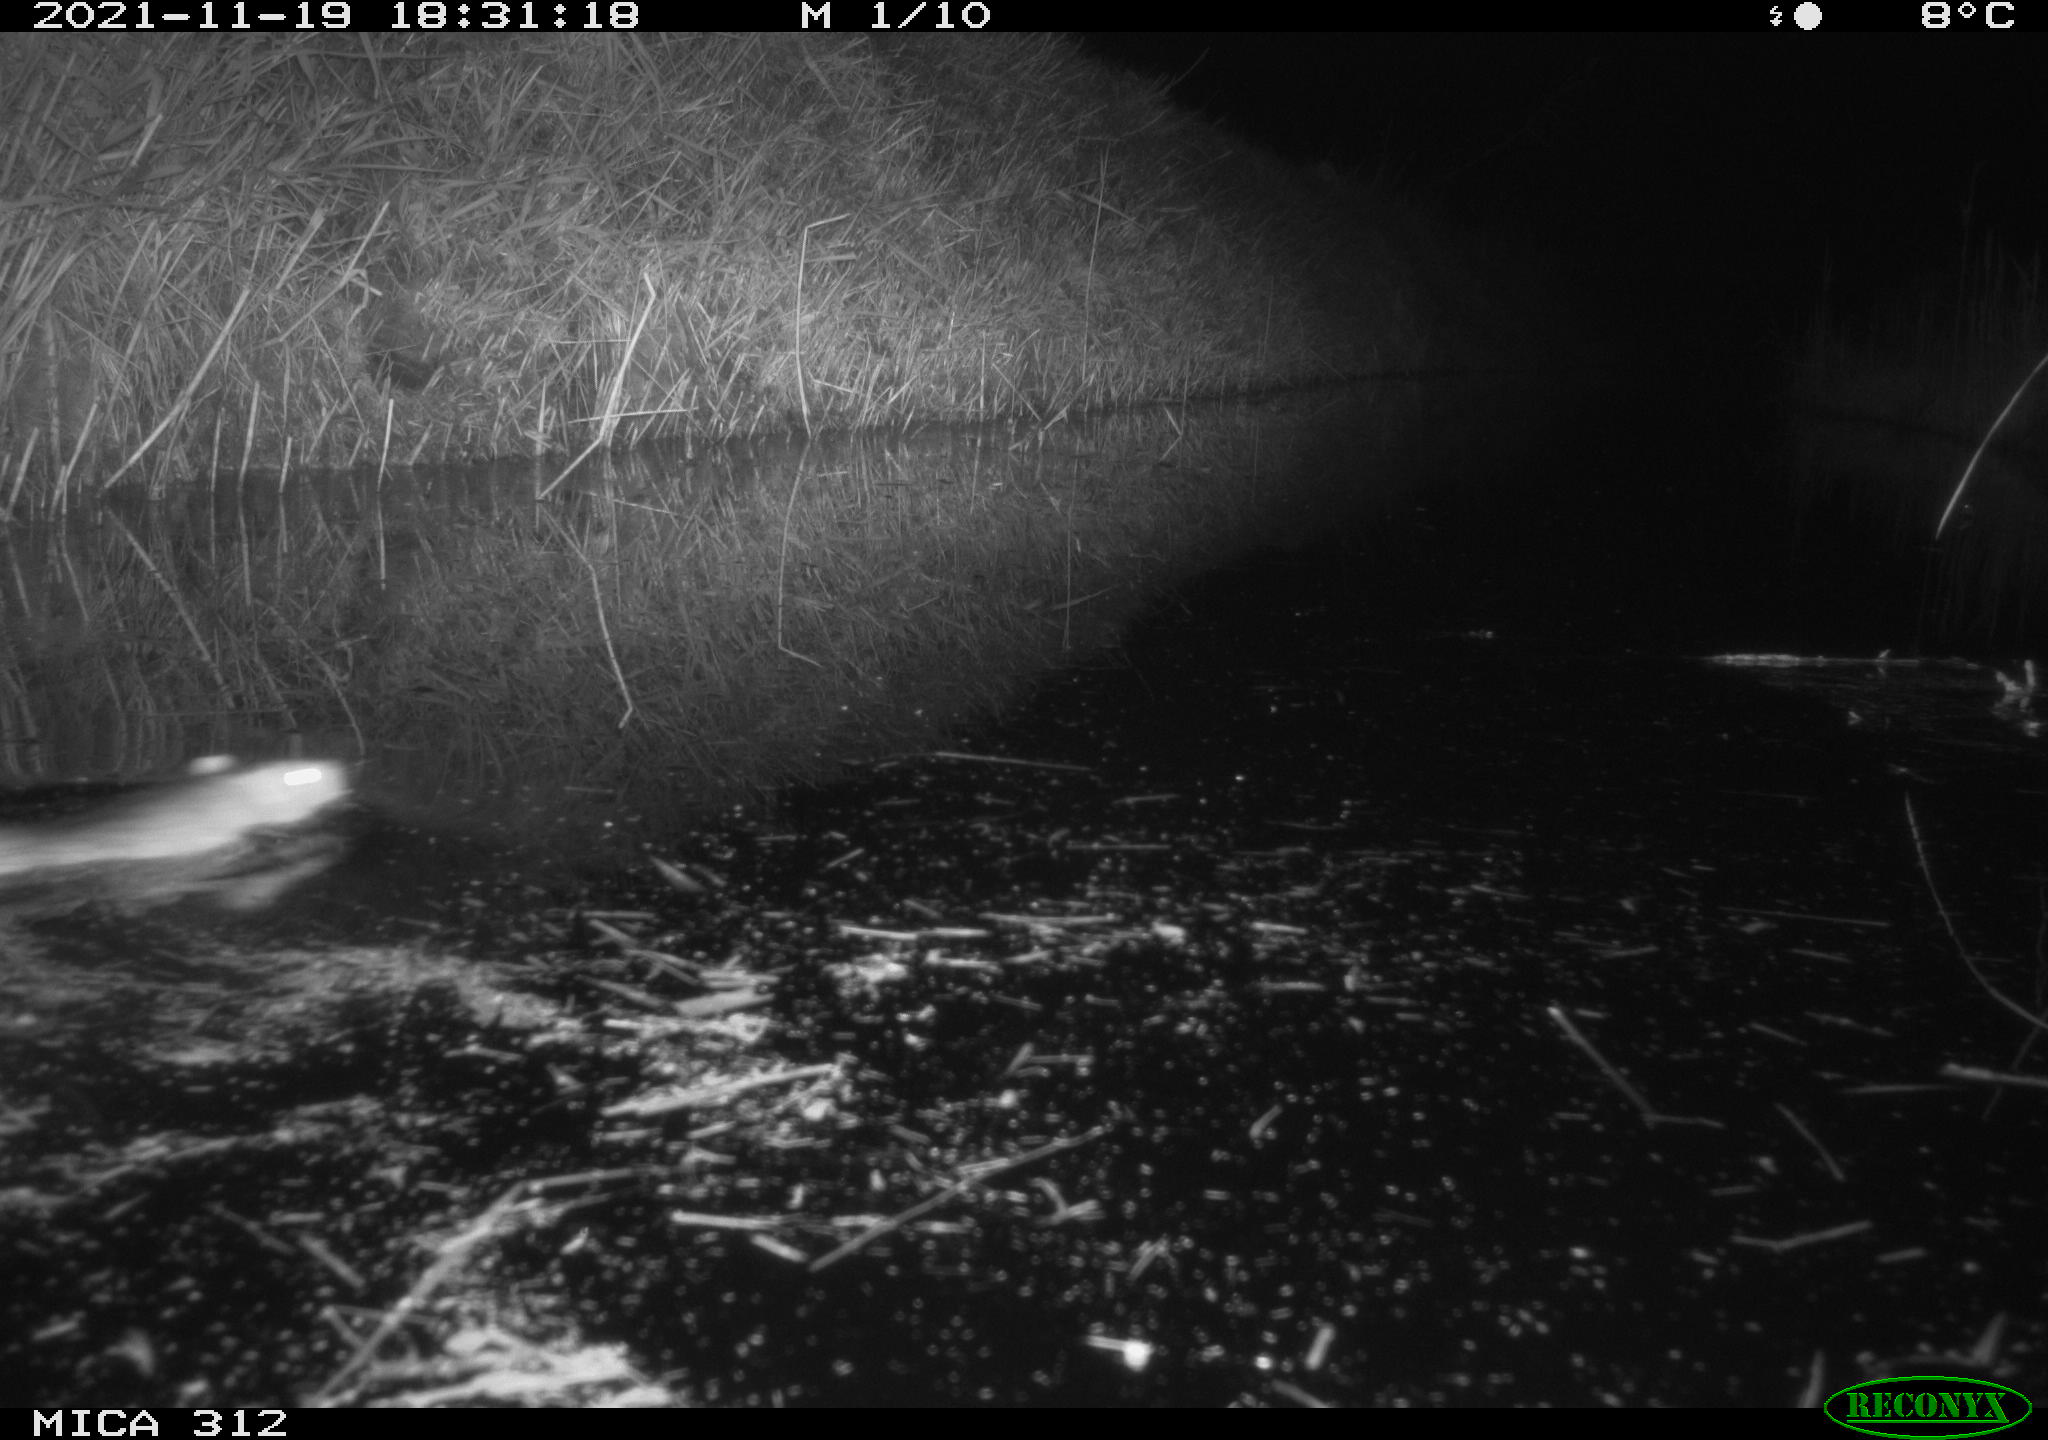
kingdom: Animalia
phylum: Chordata
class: Mammalia
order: Rodentia
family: Muridae
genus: Rattus
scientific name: Rattus norvegicus
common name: Brown rat
